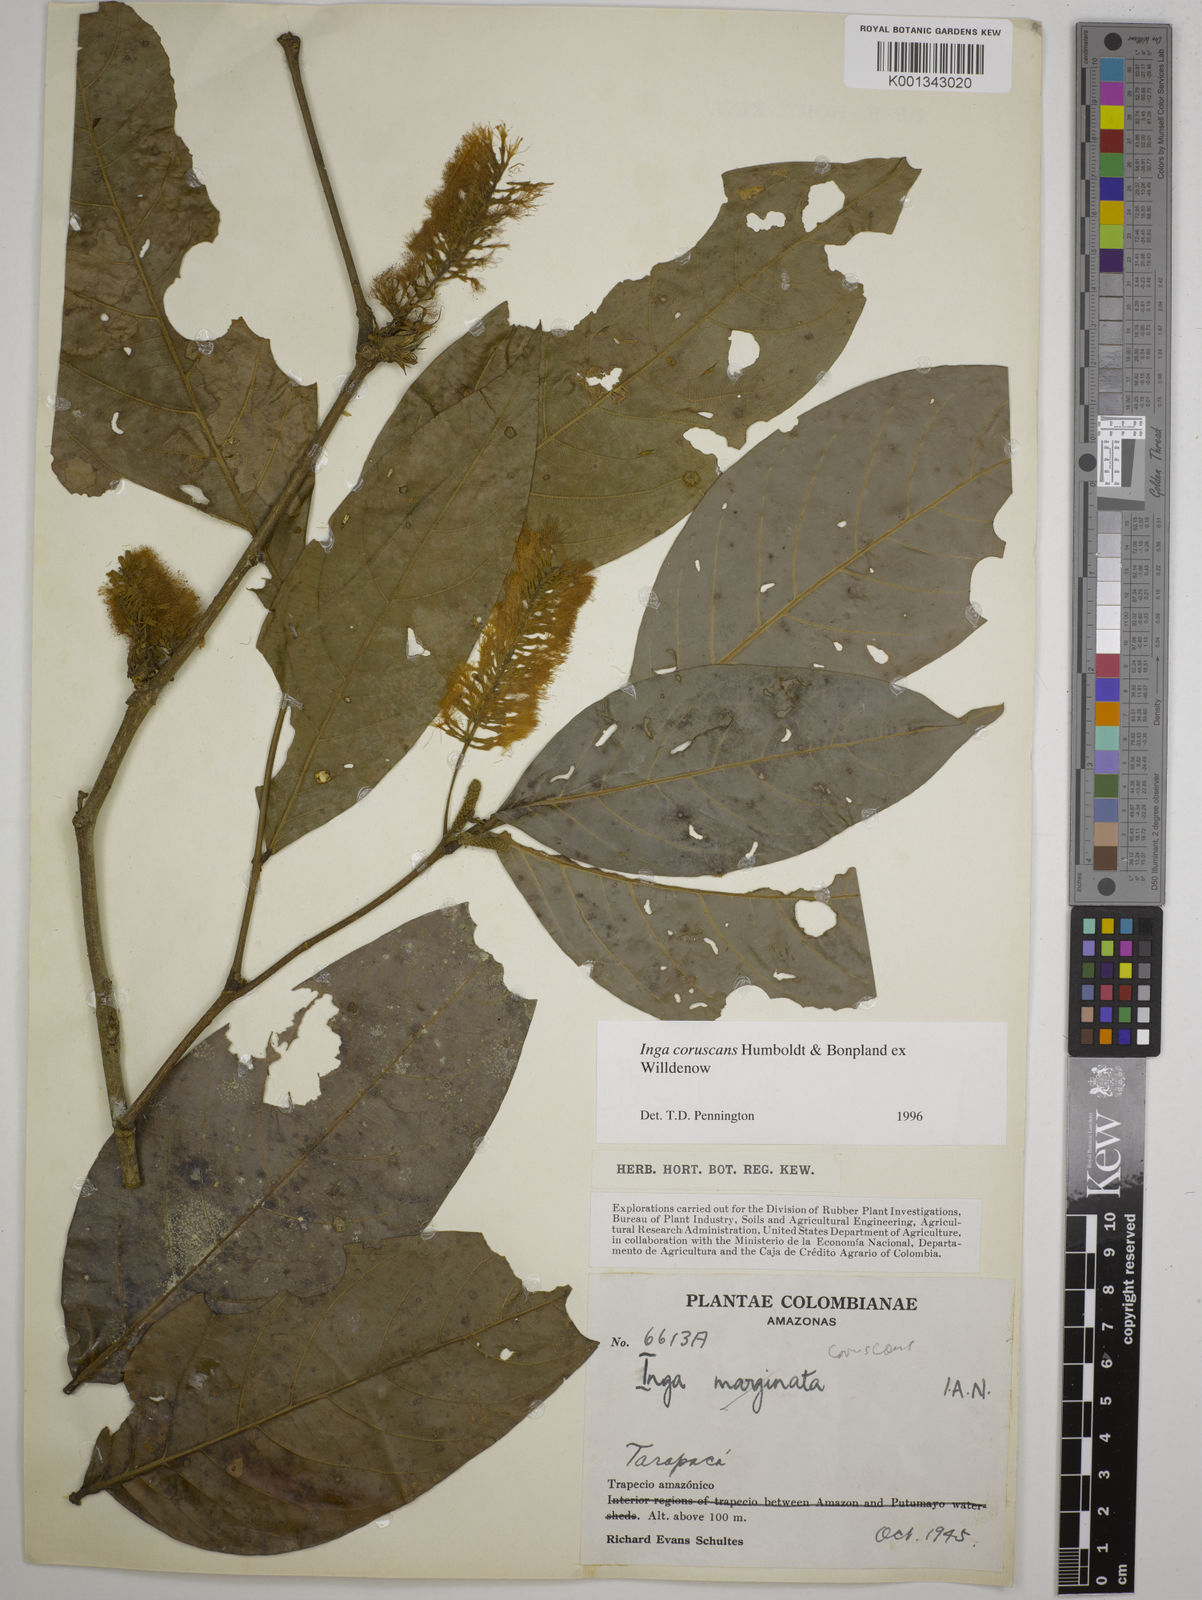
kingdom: Plantae
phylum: Tracheophyta
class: Magnoliopsida
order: Fabales
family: Fabaceae
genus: Inga
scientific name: Inga coruscans
